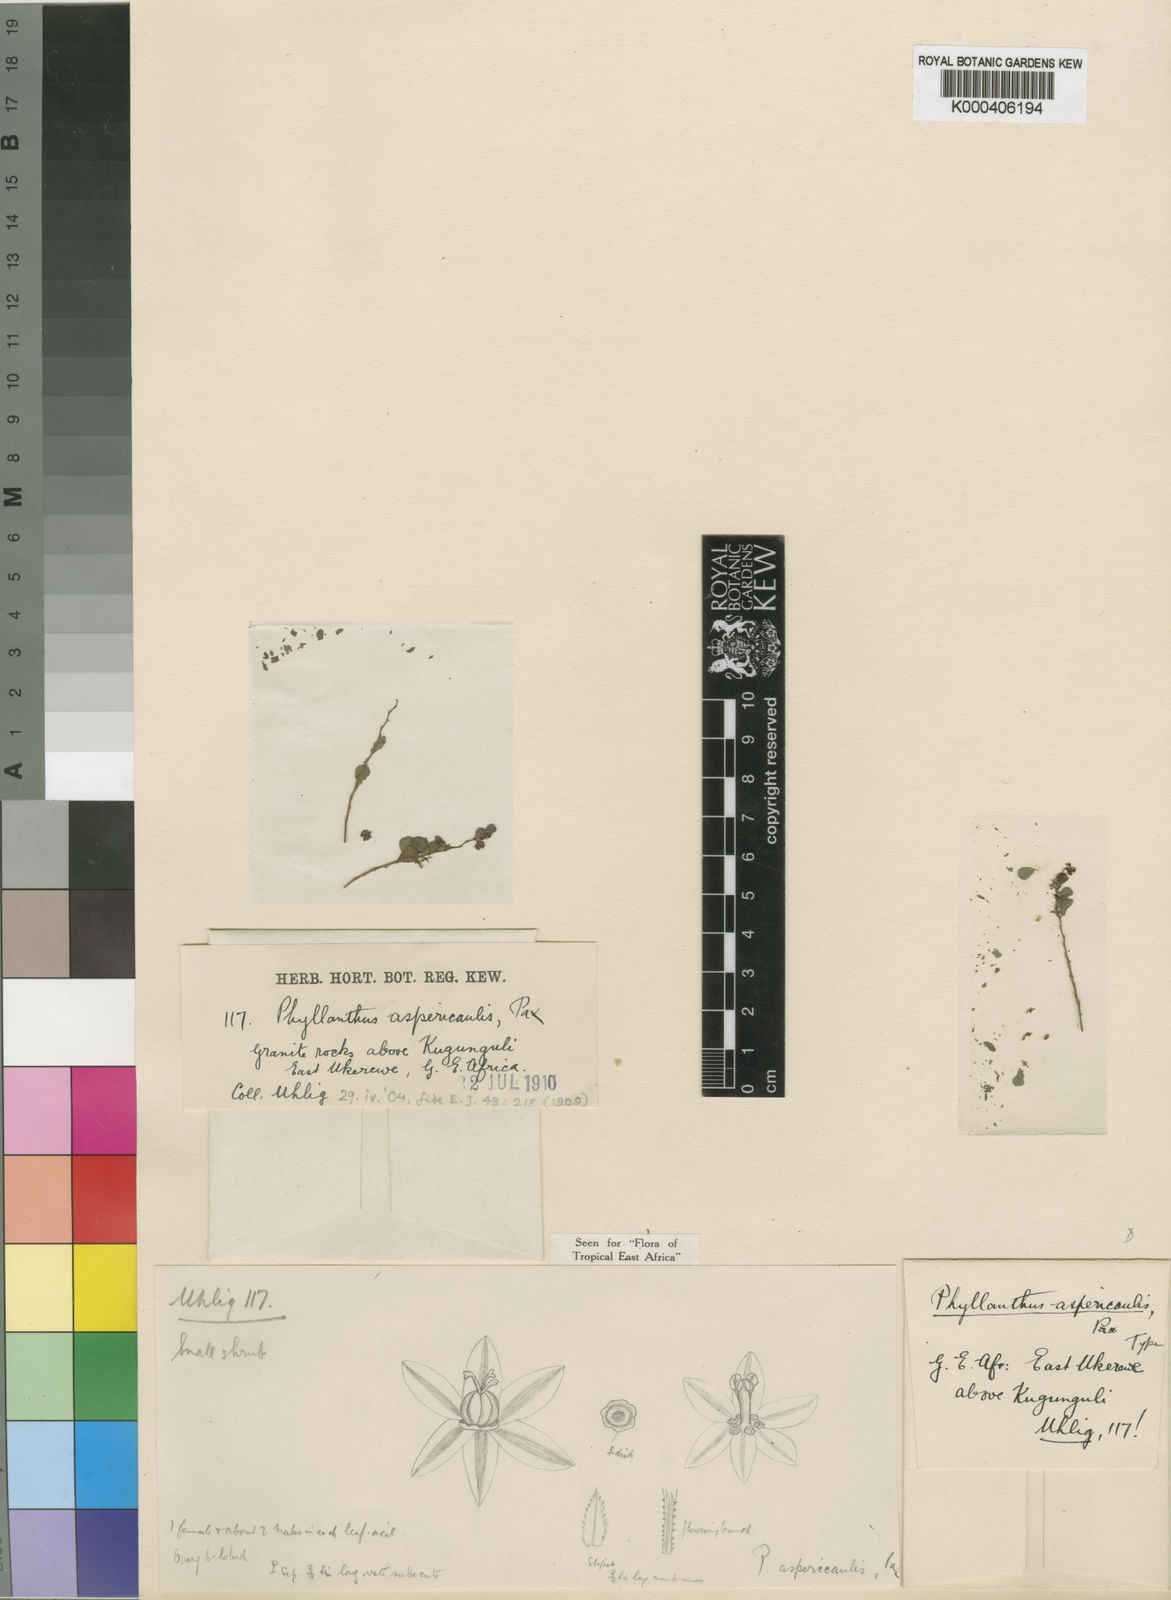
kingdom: Plantae
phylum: Tracheophyta
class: Magnoliopsida
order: Malpighiales
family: Phyllanthaceae
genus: Phyllanthus
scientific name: Phyllanthus rotundifolius
